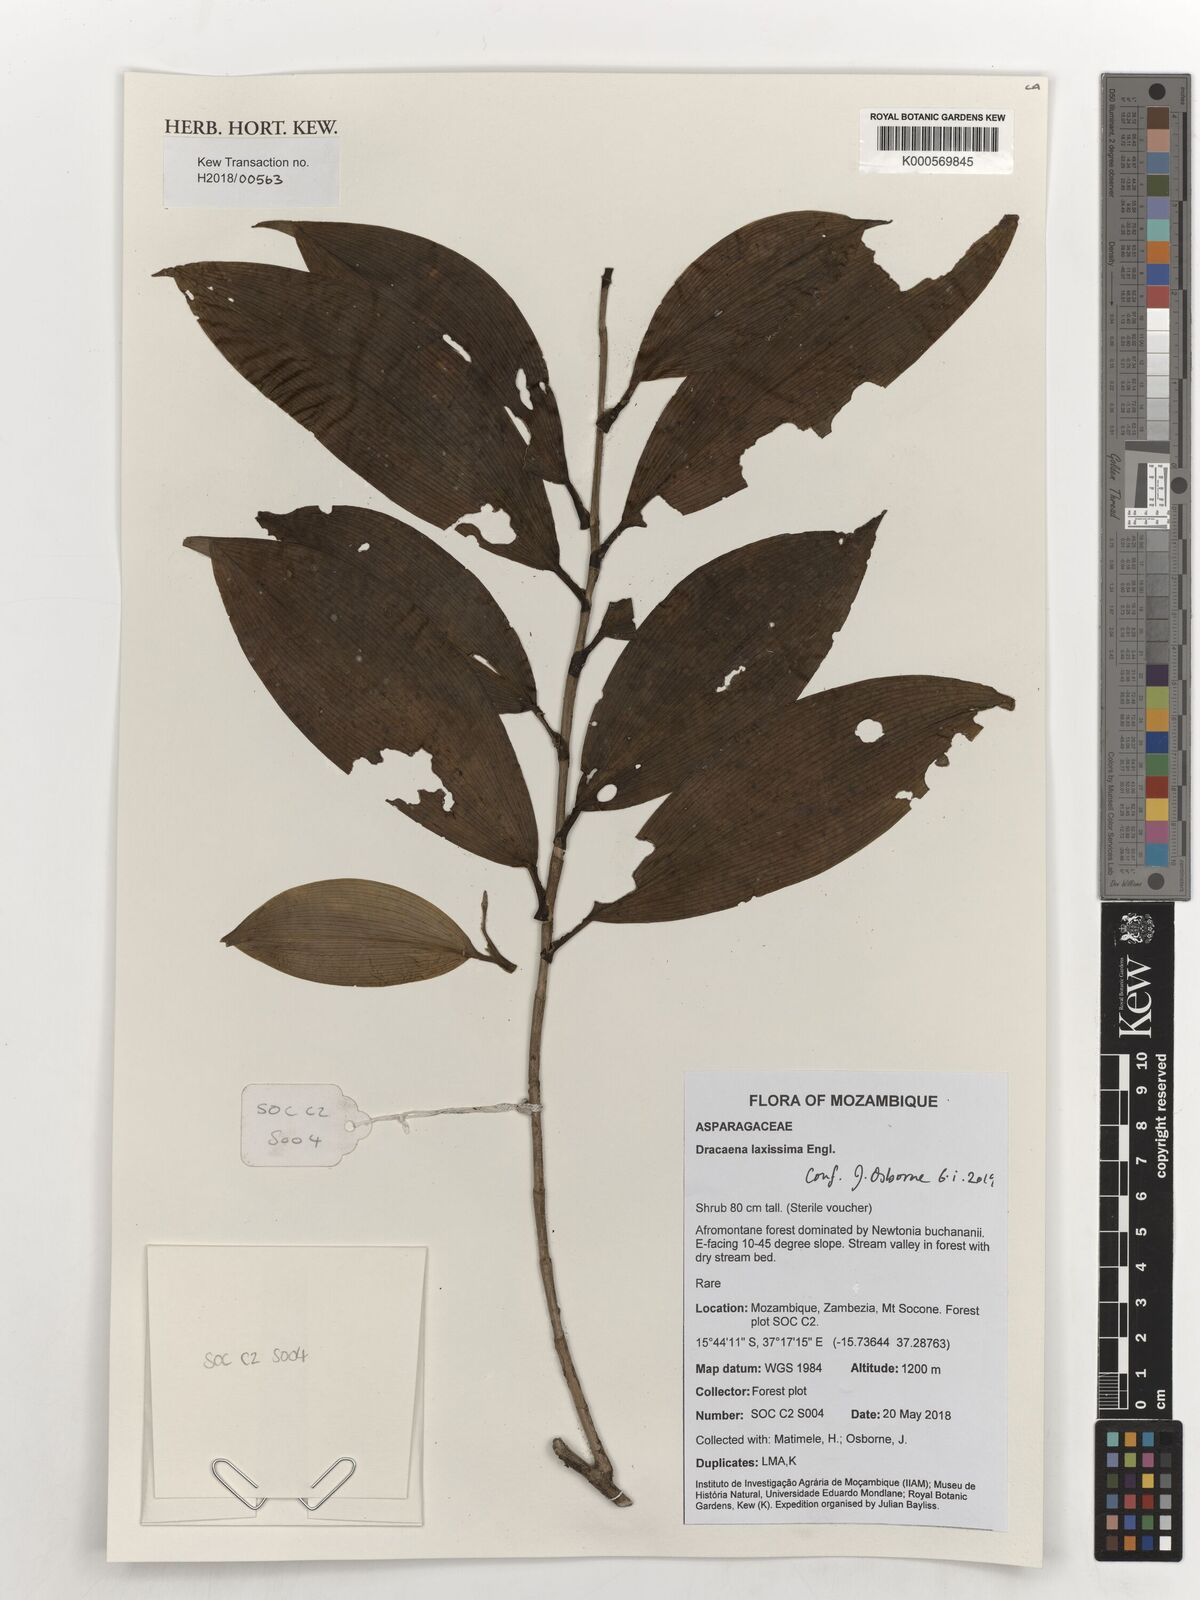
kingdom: Plantae
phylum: Tracheophyta
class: Liliopsida
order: Asparagales
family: Asparagaceae
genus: Dracaena
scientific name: Dracaena laxissima
